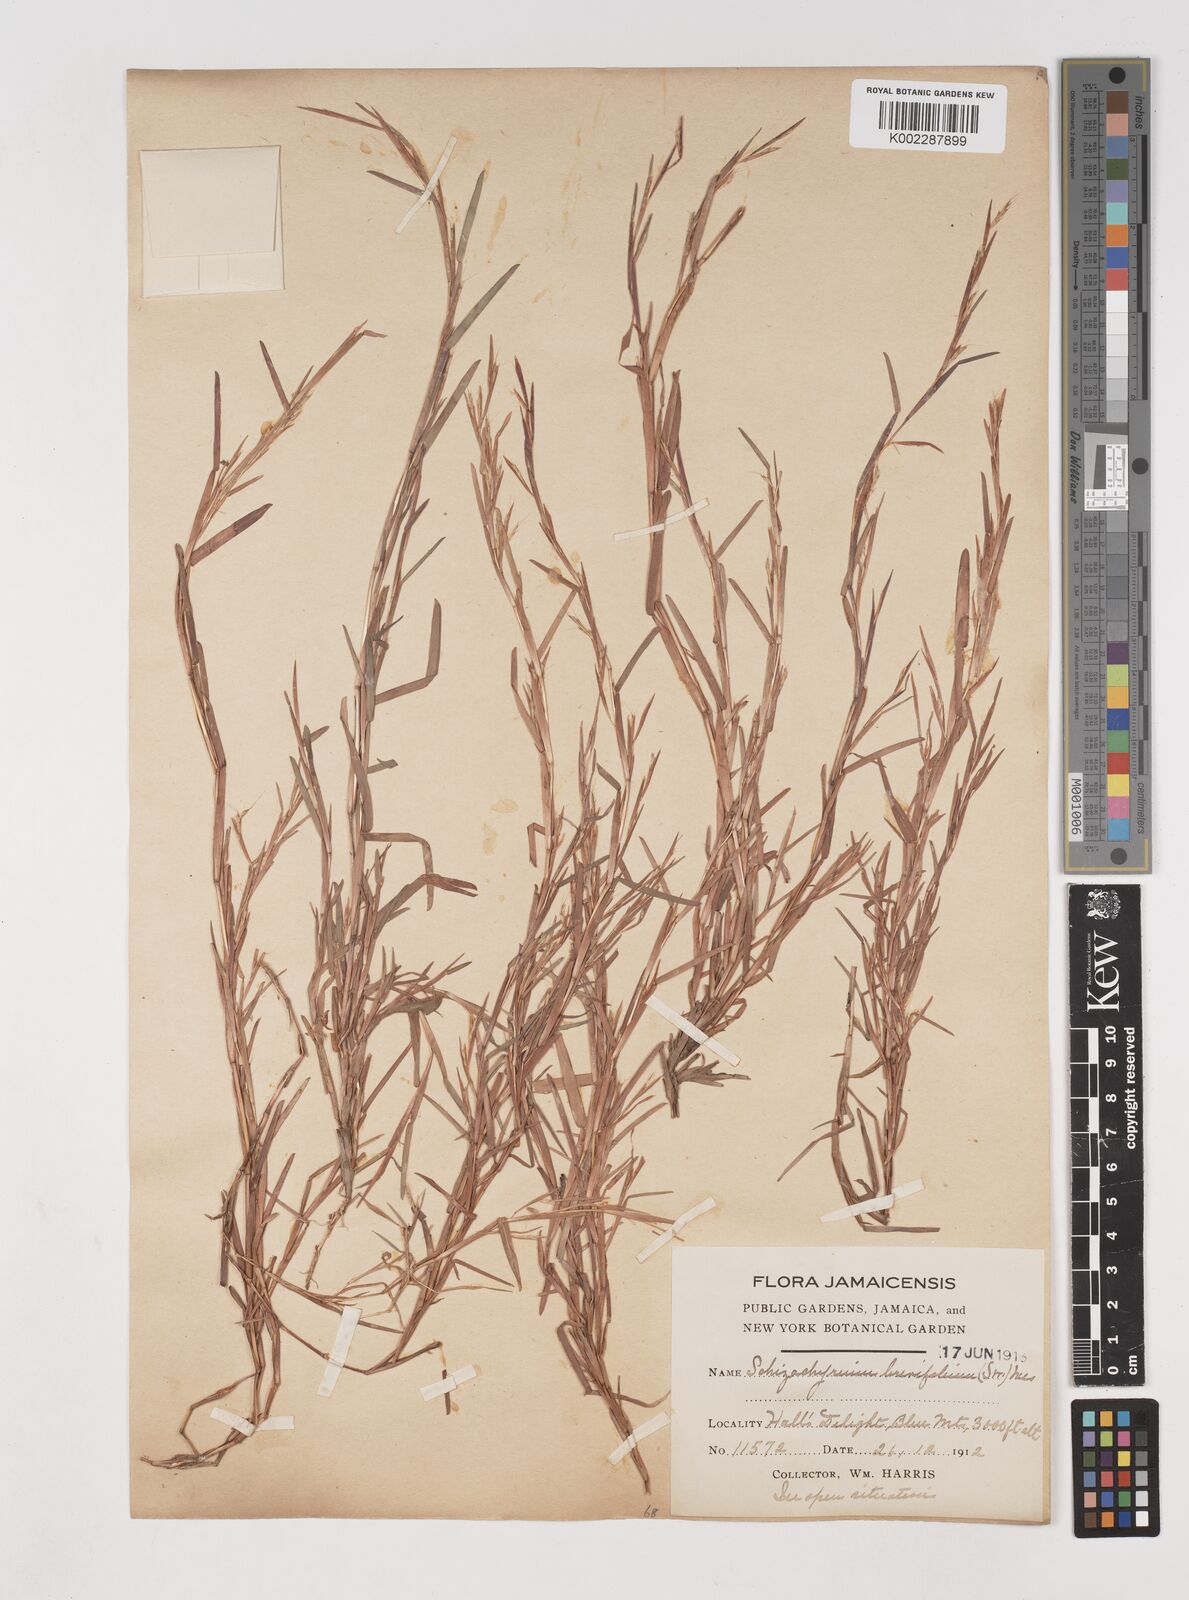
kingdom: Plantae
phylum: Tracheophyta
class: Liliopsida
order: Poales
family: Poaceae
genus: Schizachyrium
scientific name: Schizachyrium brevifolium
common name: Serillo dulce
